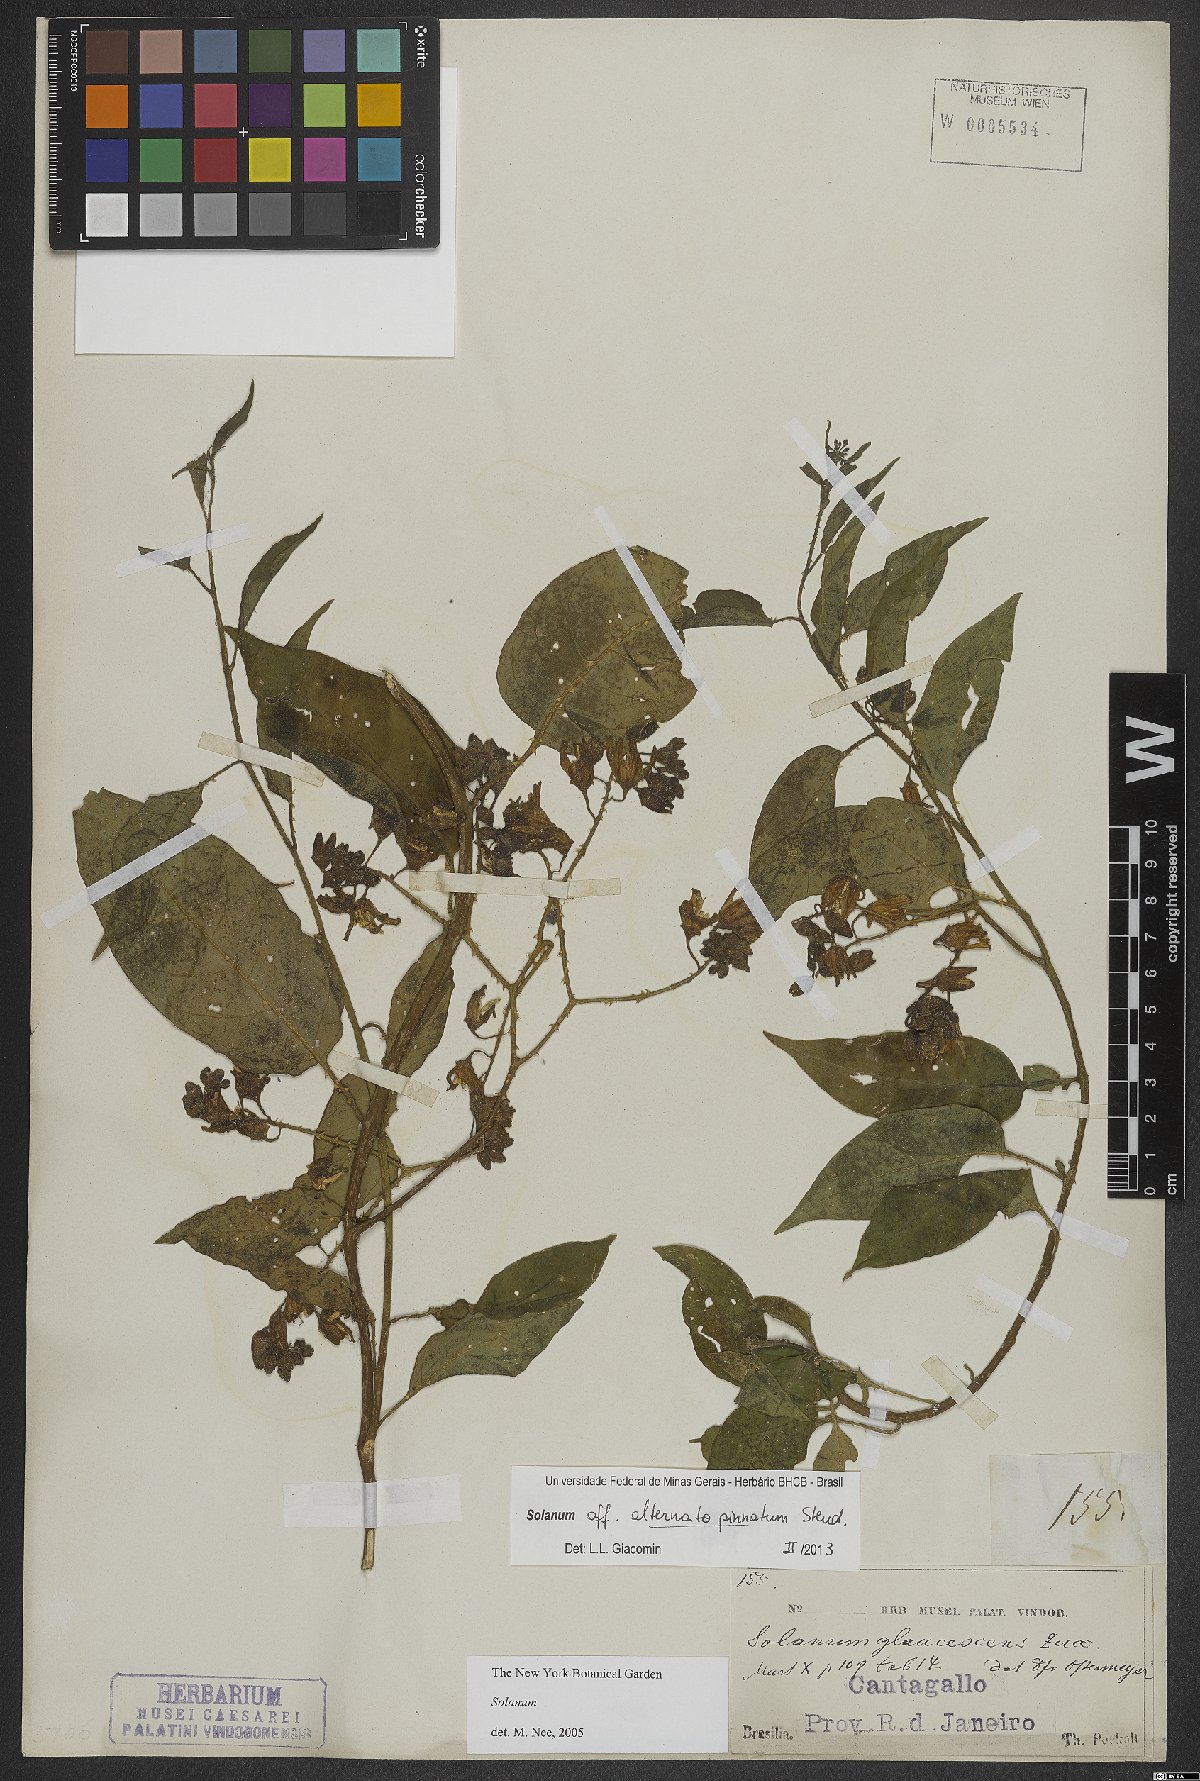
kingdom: Plantae
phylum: Tracheophyta
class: Magnoliopsida
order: Solanales
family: Solanaceae
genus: Solanum
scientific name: Solanum alternatopinnatum
